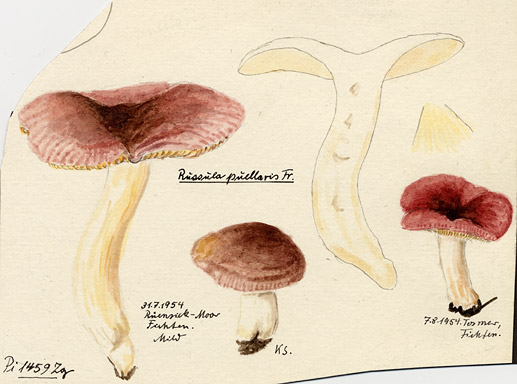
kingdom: Fungi
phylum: Basidiomycota
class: Agaricomycetes
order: Russulales
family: Russulaceae
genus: Russula
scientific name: Russula puellaris
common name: Yellowing brittlegill
